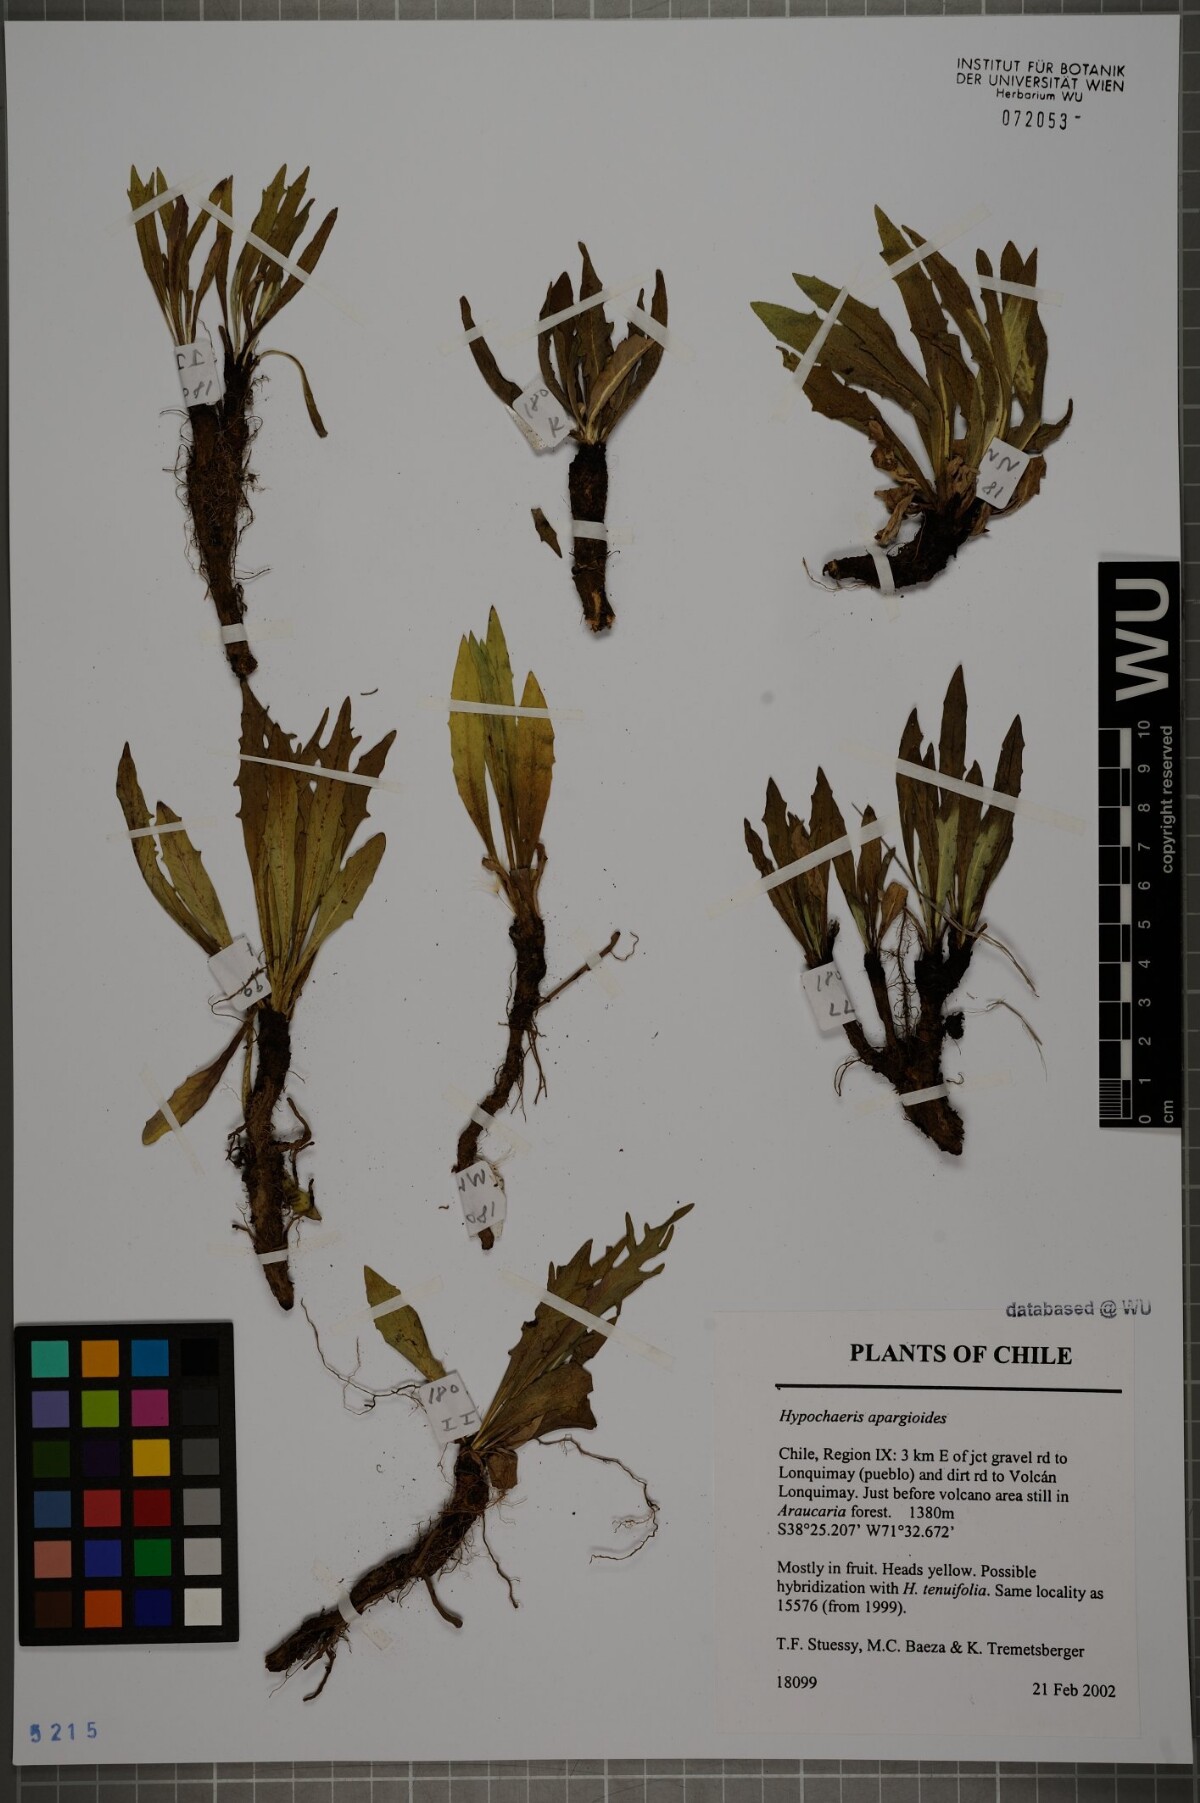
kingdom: Plantae
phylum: Tracheophyta
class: Magnoliopsida
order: Asterales
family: Asteraceae
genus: Hypochaeris
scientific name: Hypochaeris apargioides
